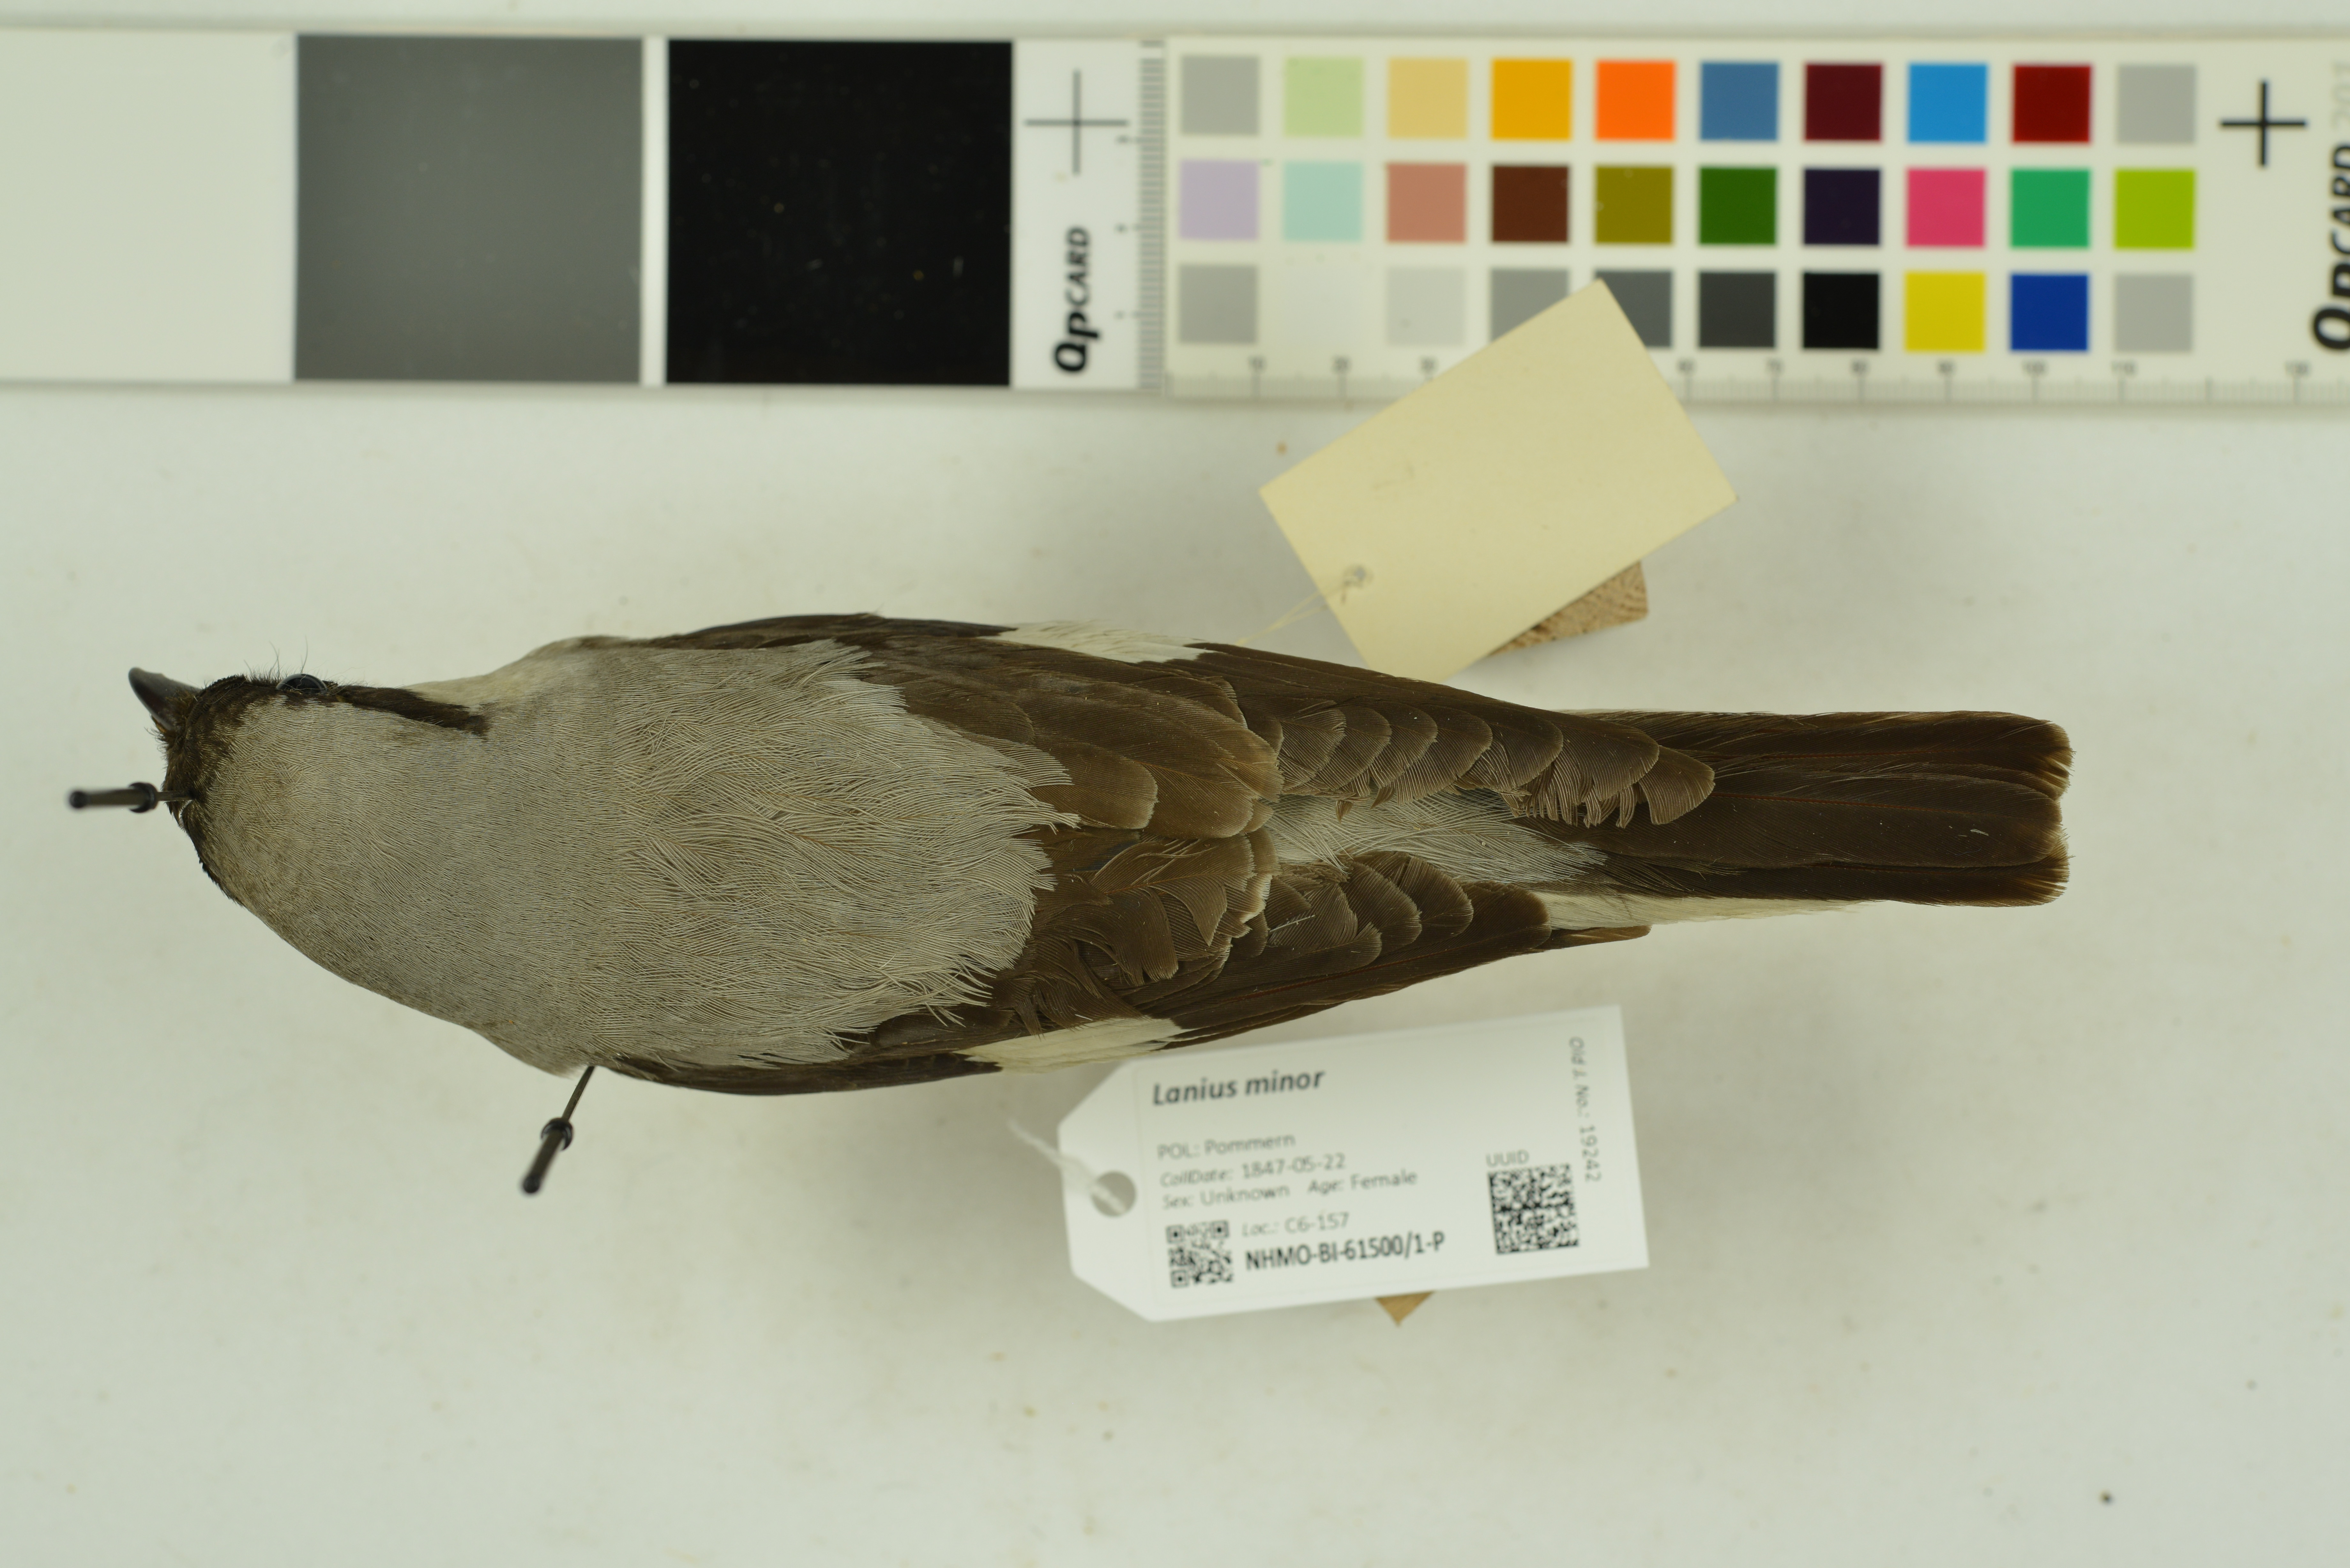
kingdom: Animalia
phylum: Chordata
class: Aves
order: Passeriformes
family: Laniidae
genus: Lanius
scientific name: Lanius minor
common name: Lesser grey shrike
